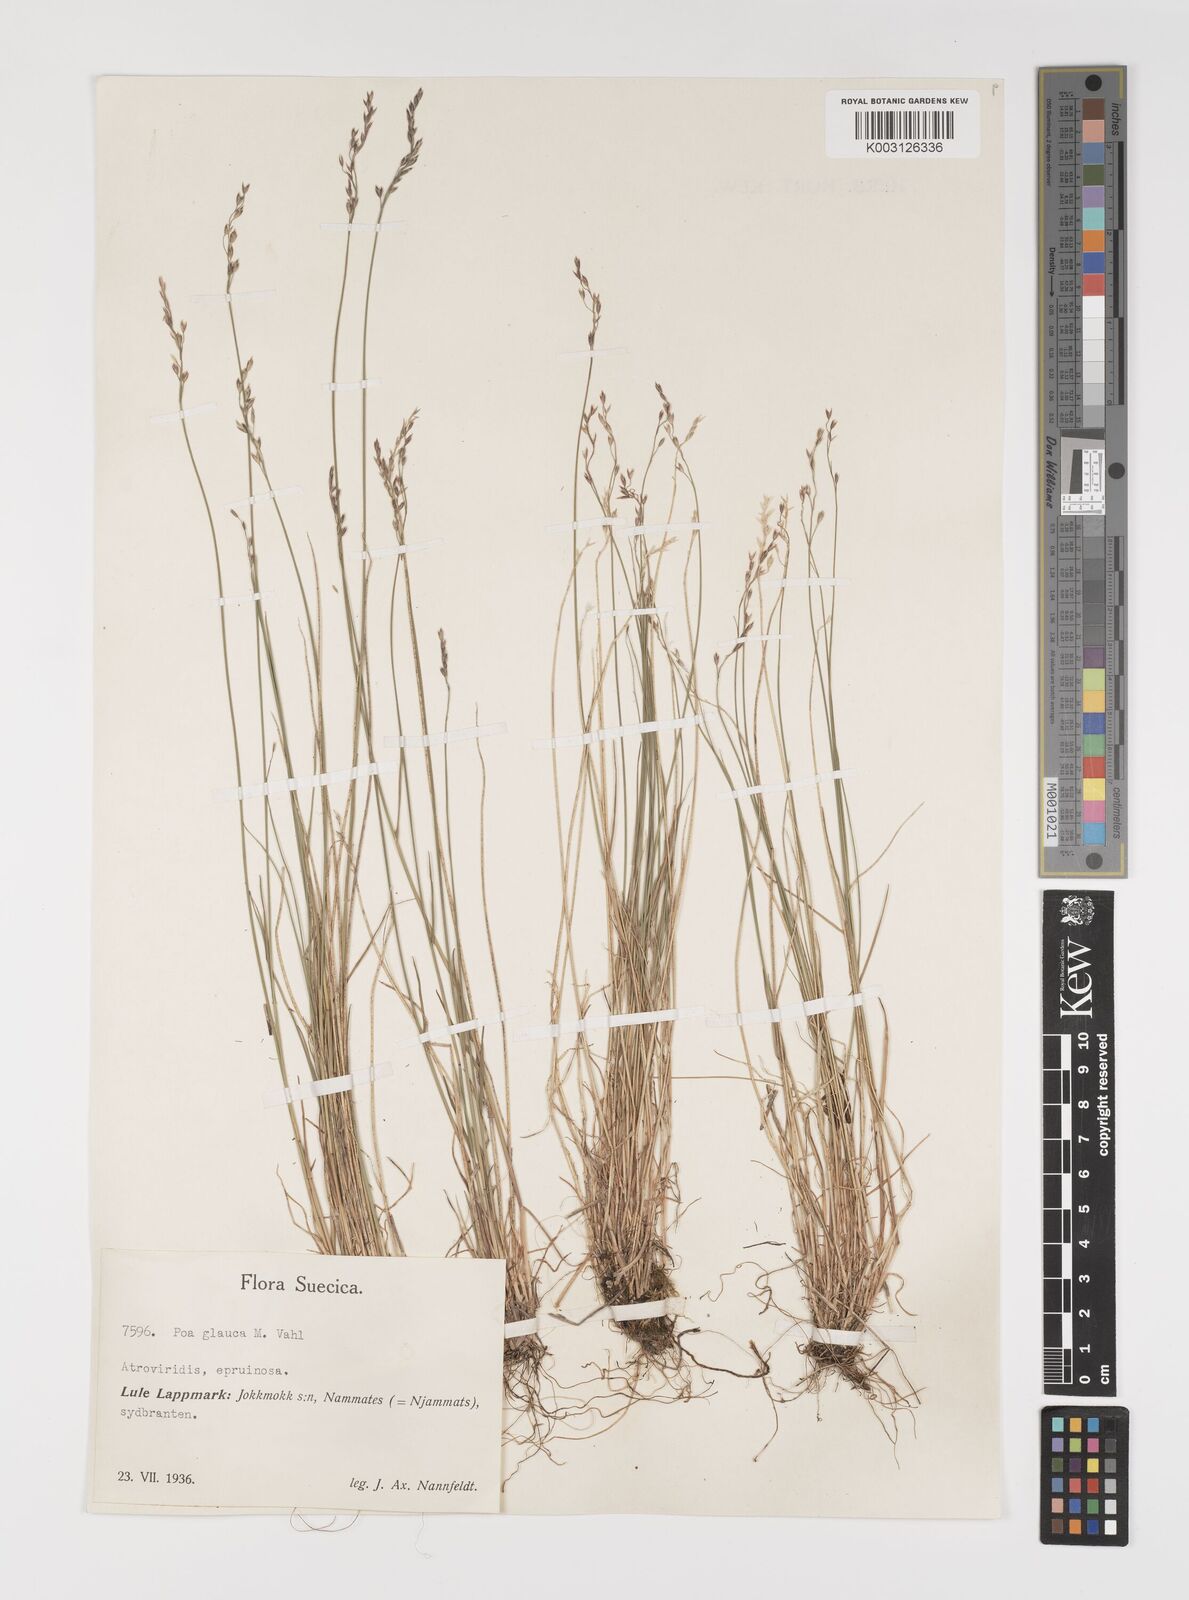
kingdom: Plantae
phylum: Tracheophyta
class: Liliopsida
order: Poales
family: Poaceae
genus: Poa
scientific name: Poa glauca
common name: Glaucous bluegrass
